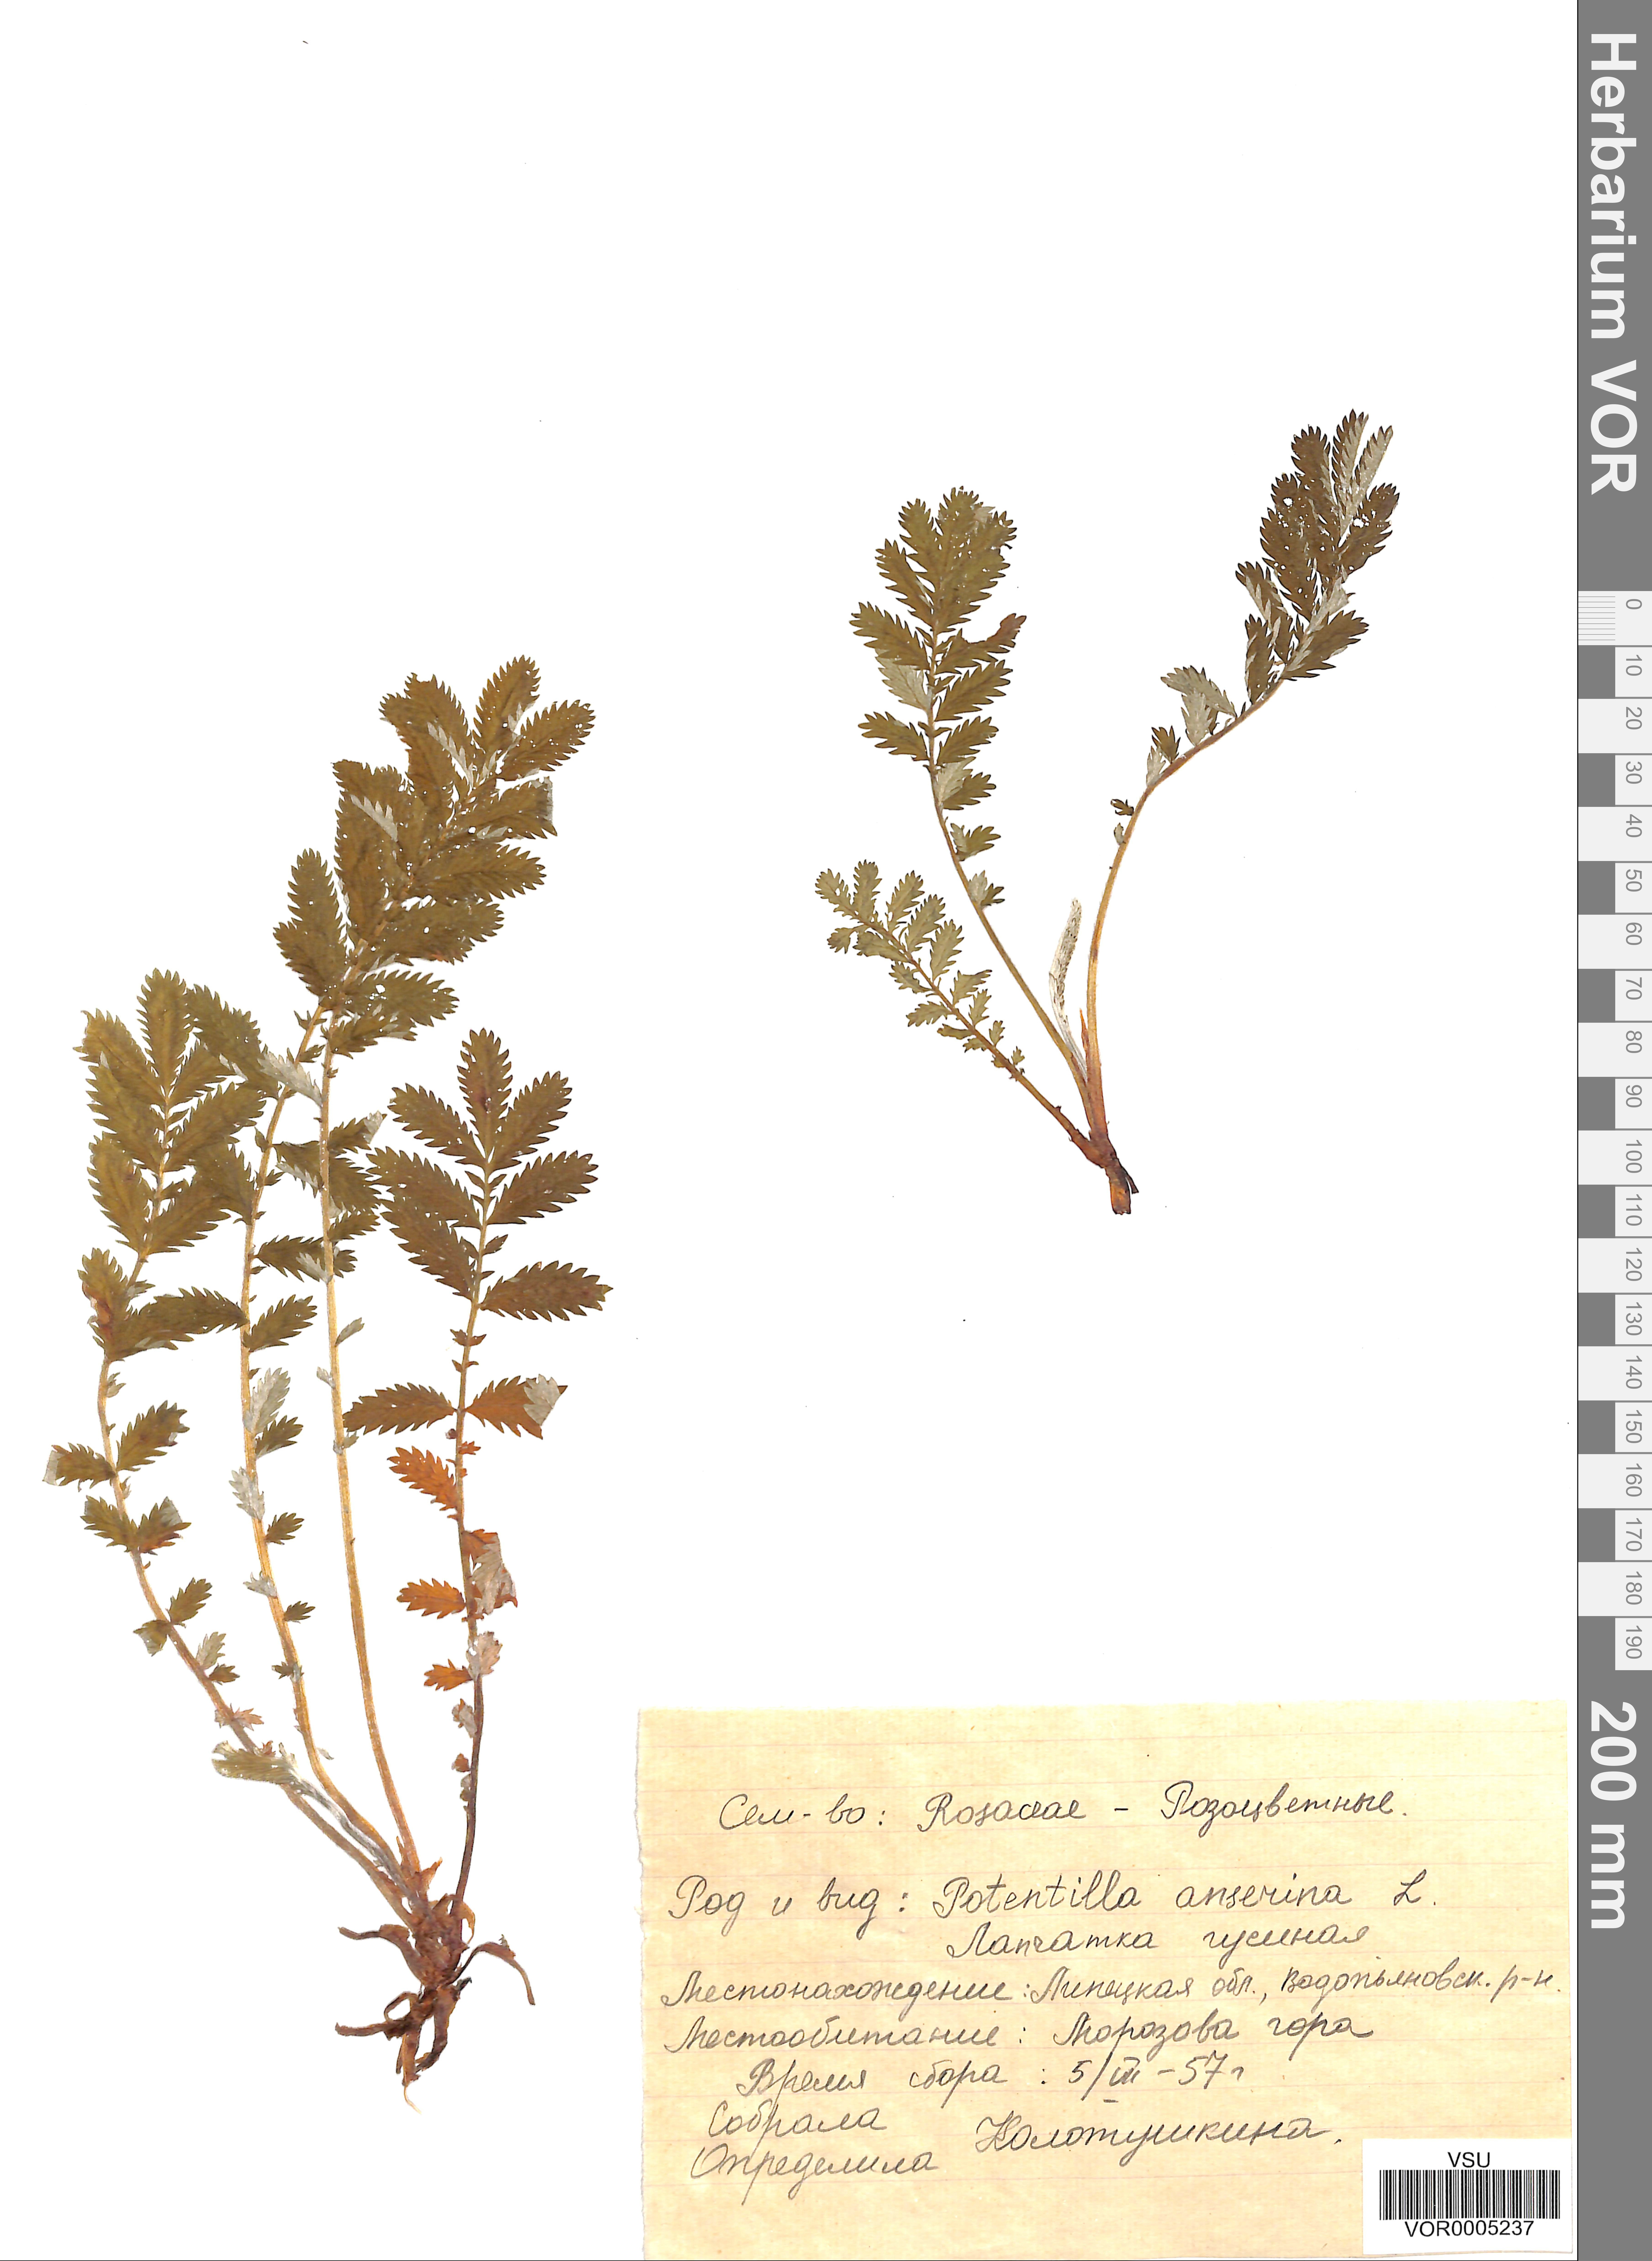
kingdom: Plantae
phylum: Tracheophyta
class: Magnoliopsida
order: Rosales
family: Rosaceae
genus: Argentina
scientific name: Argentina anserina
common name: Common silverweed
